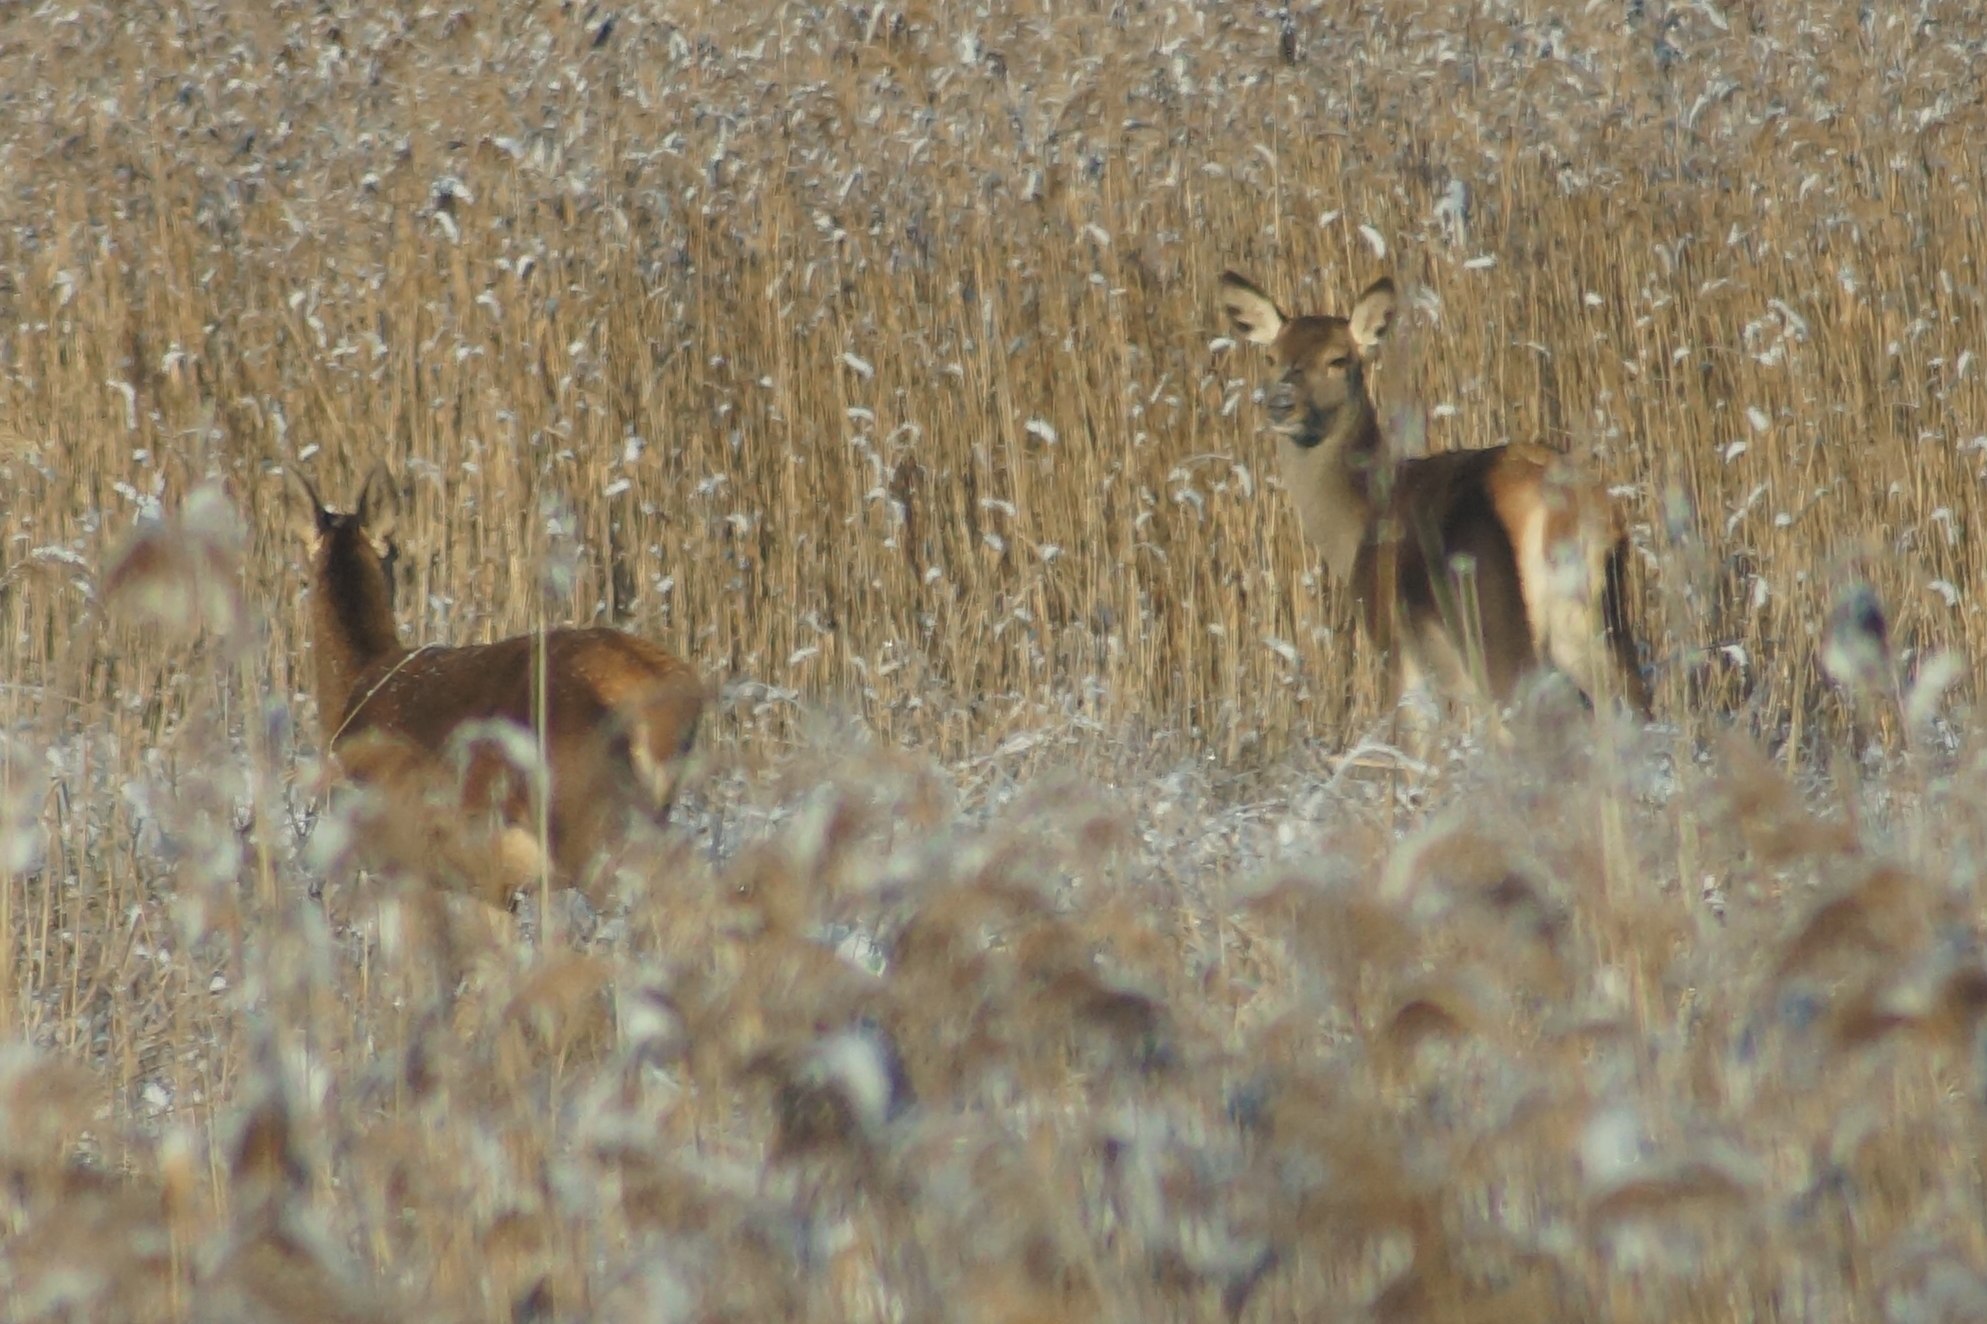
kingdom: Animalia
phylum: Chordata
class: Mammalia
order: Artiodactyla
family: Cervidae
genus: Cervus
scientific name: Cervus elaphus
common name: Krondyr
